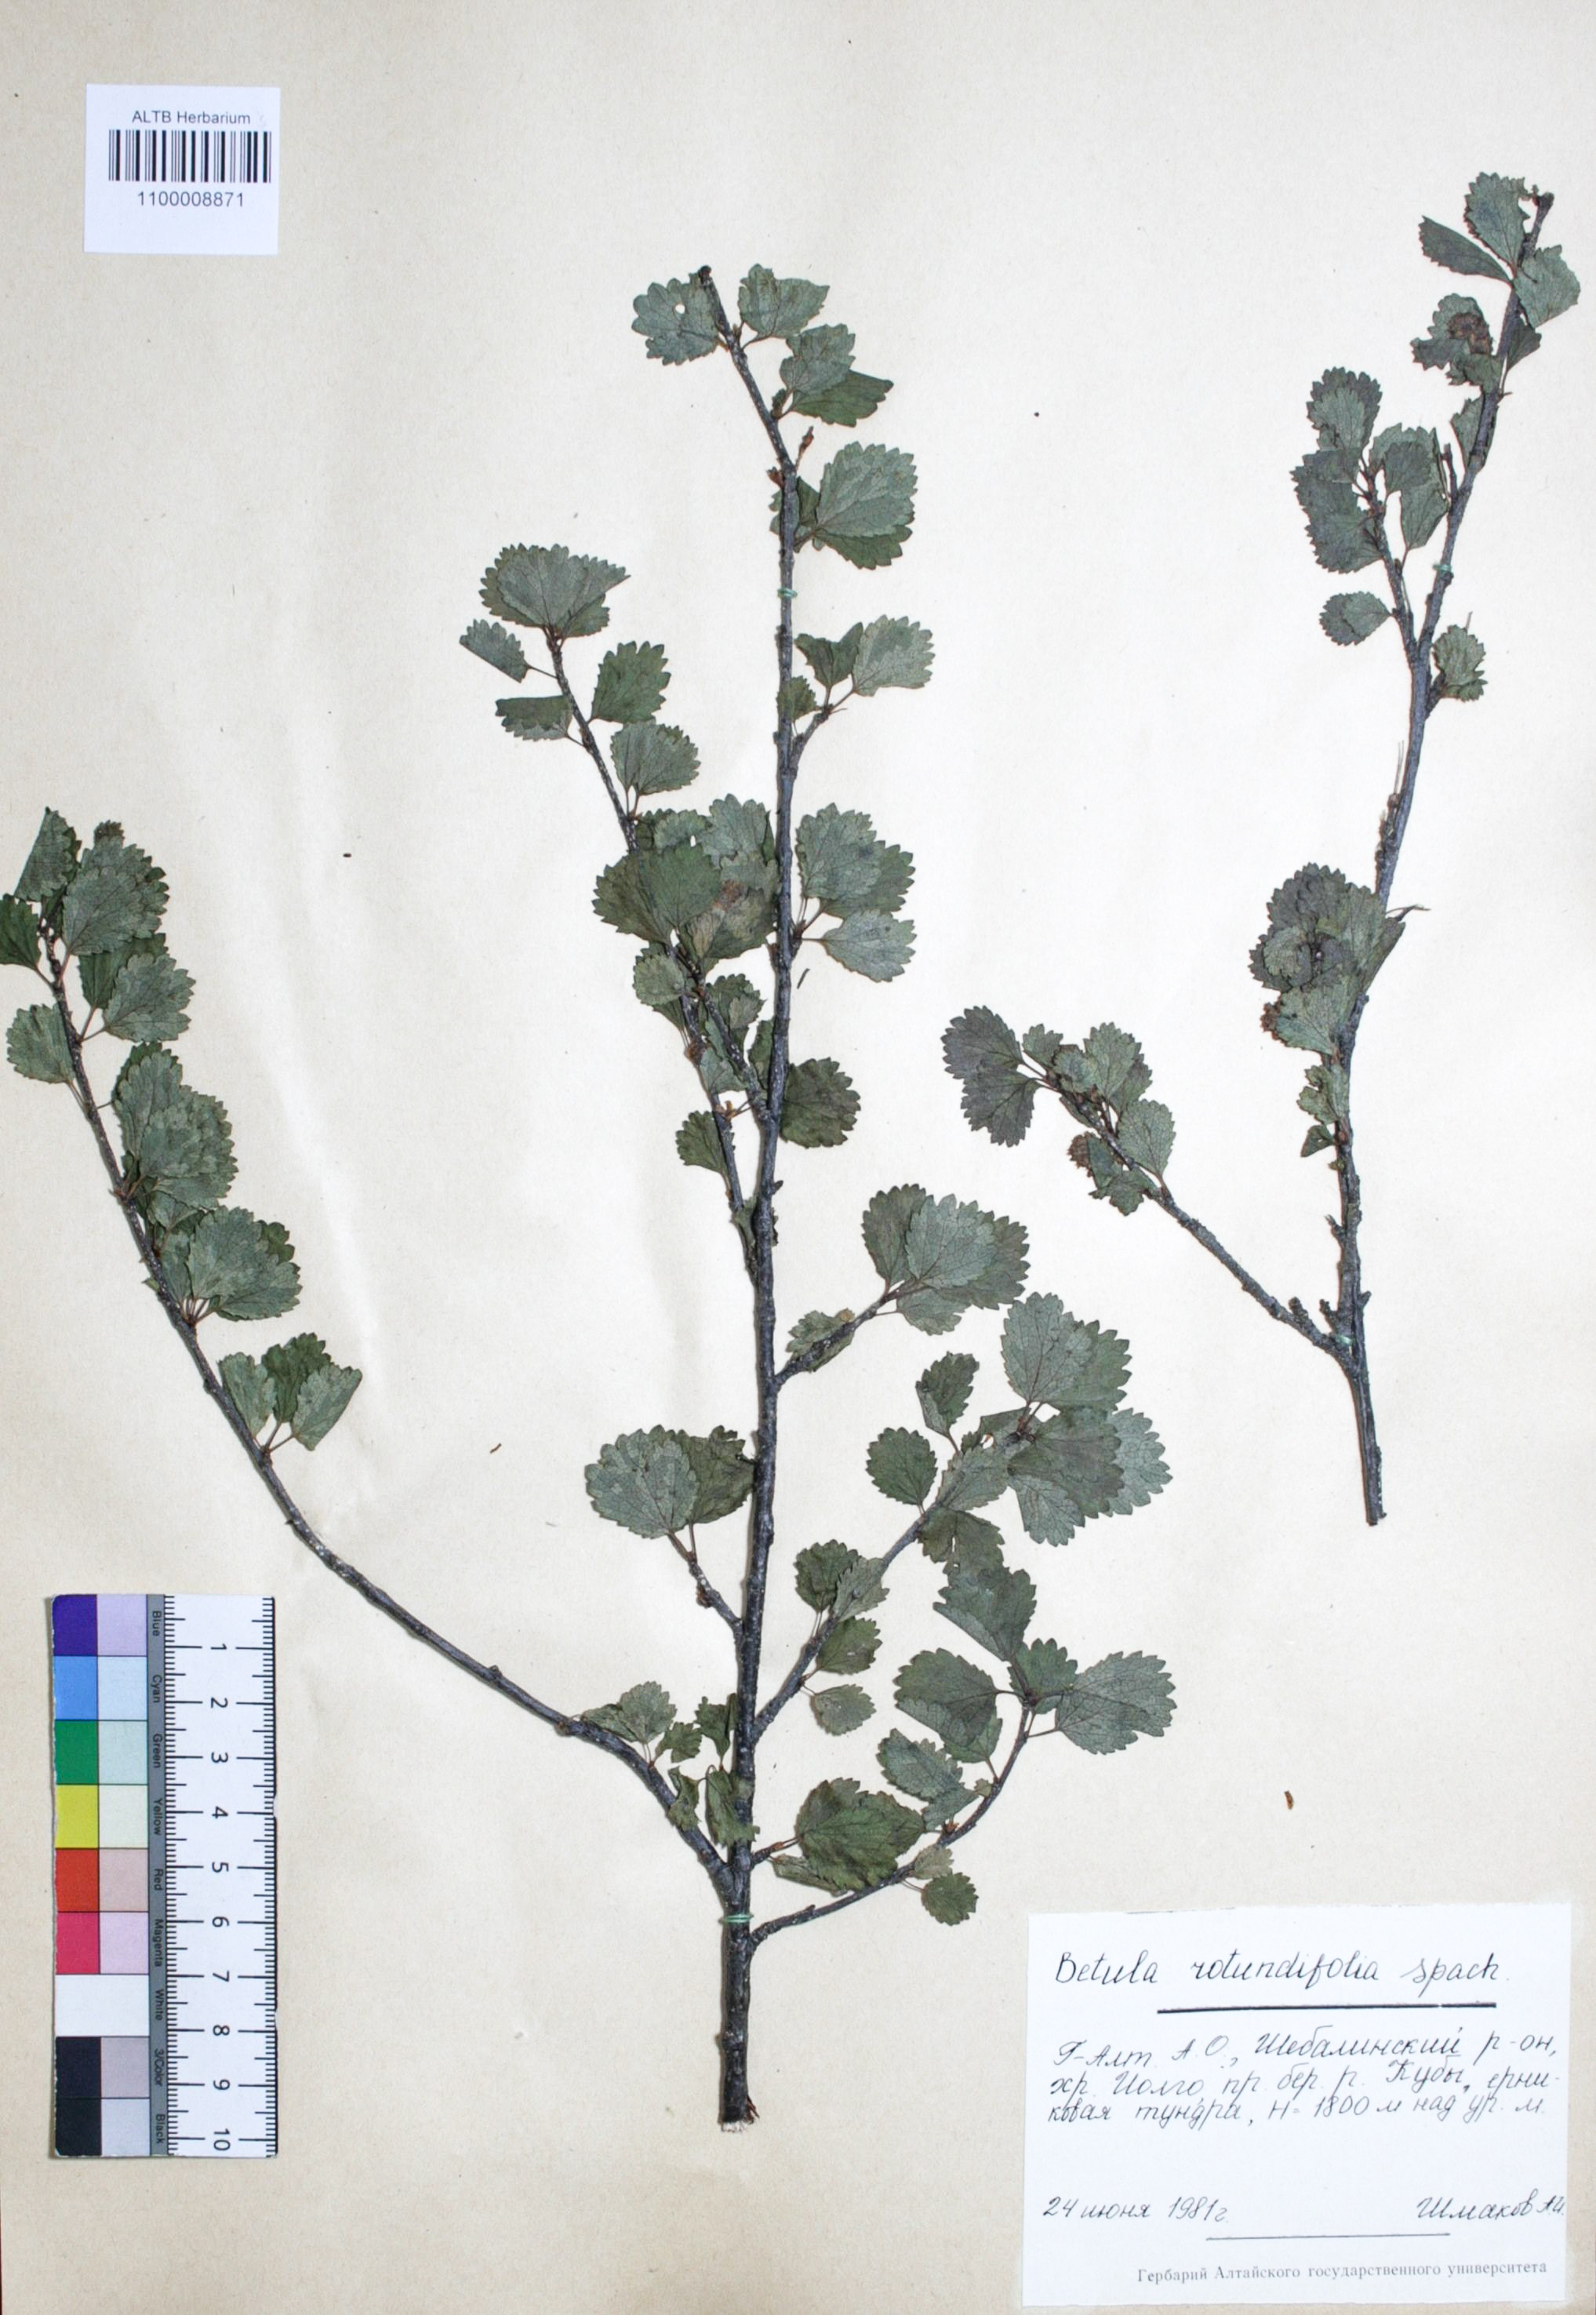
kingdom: Plantae
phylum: Tracheophyta
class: Magnoliopsida
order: Fagales
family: Betulaceae
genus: Betula
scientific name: Betula glandulosa
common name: Dwarf birch
